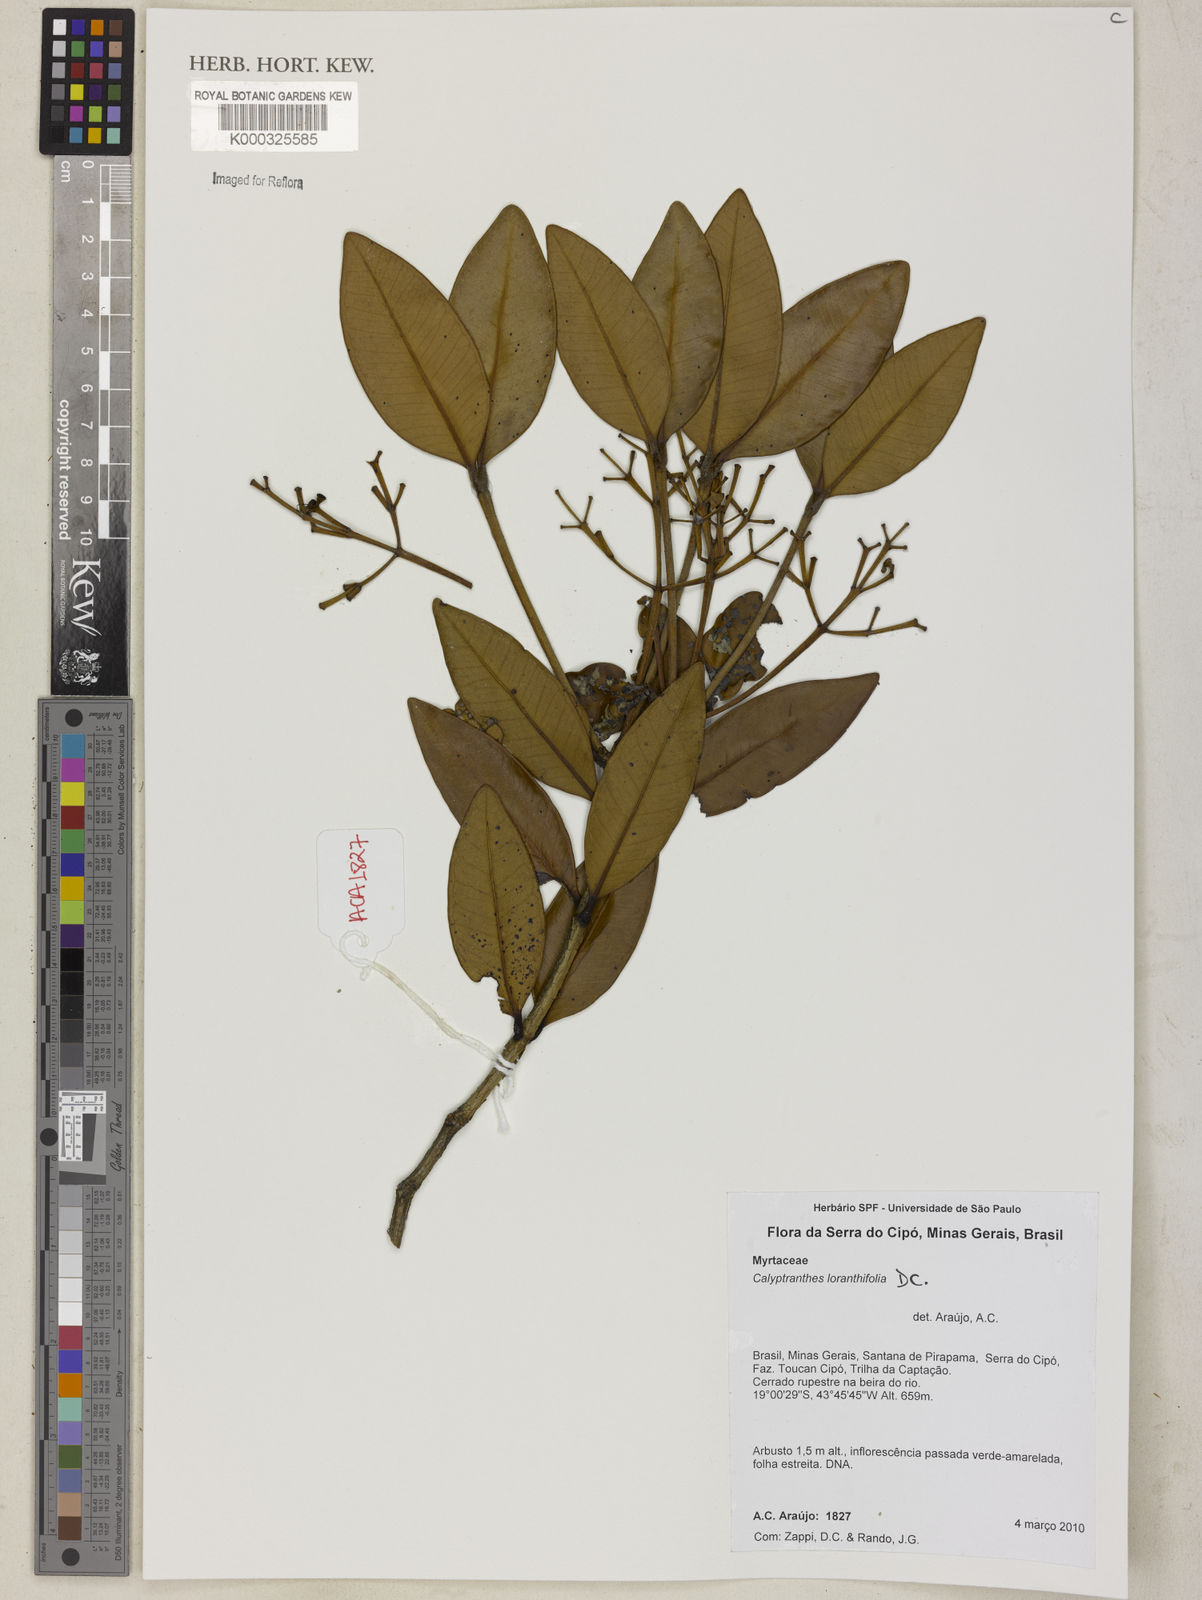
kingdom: Plantae
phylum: Tracheophyta
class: Magnoliopsida
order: Myrtales
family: Myrtaceae
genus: Myrcia
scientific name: Myrcia neobrasiliensis
